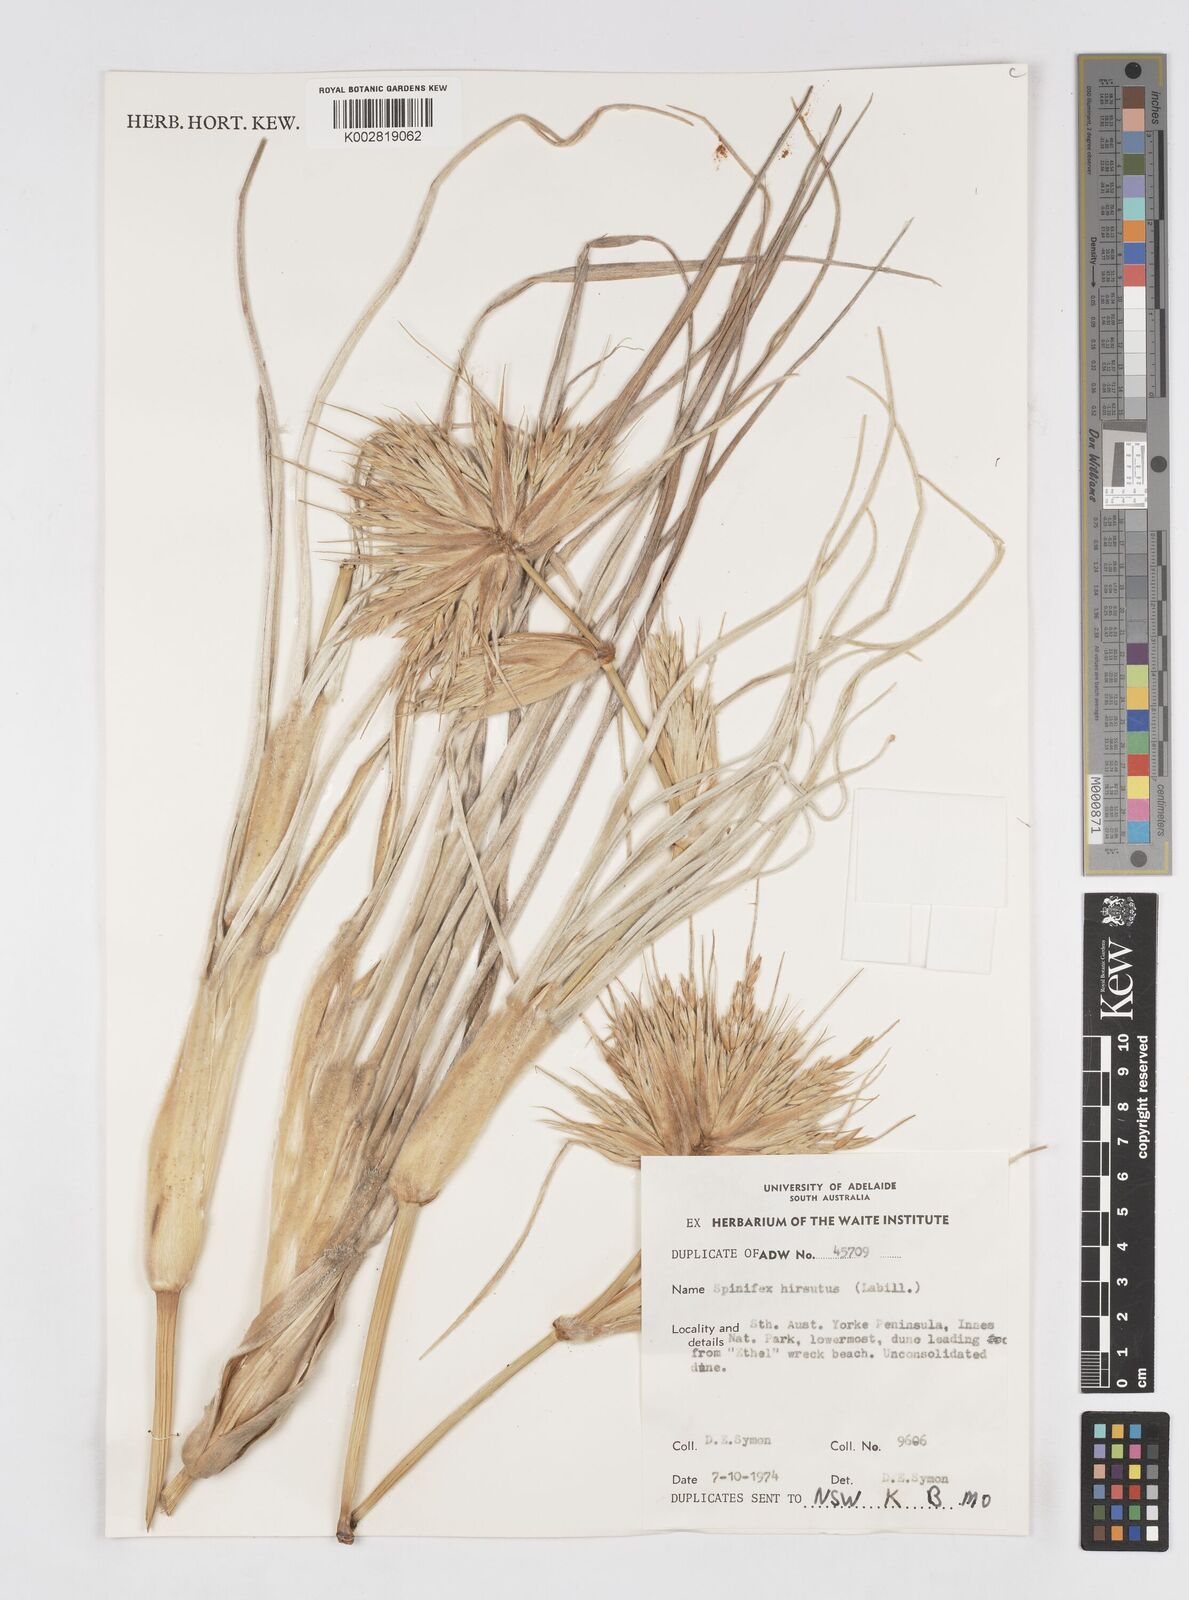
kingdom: Plantae
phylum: Tracheophyta
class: Liliopsida
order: Poales
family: Poaceae
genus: Spinifex
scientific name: Spinifex hirsutus
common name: Hairy spinifex
